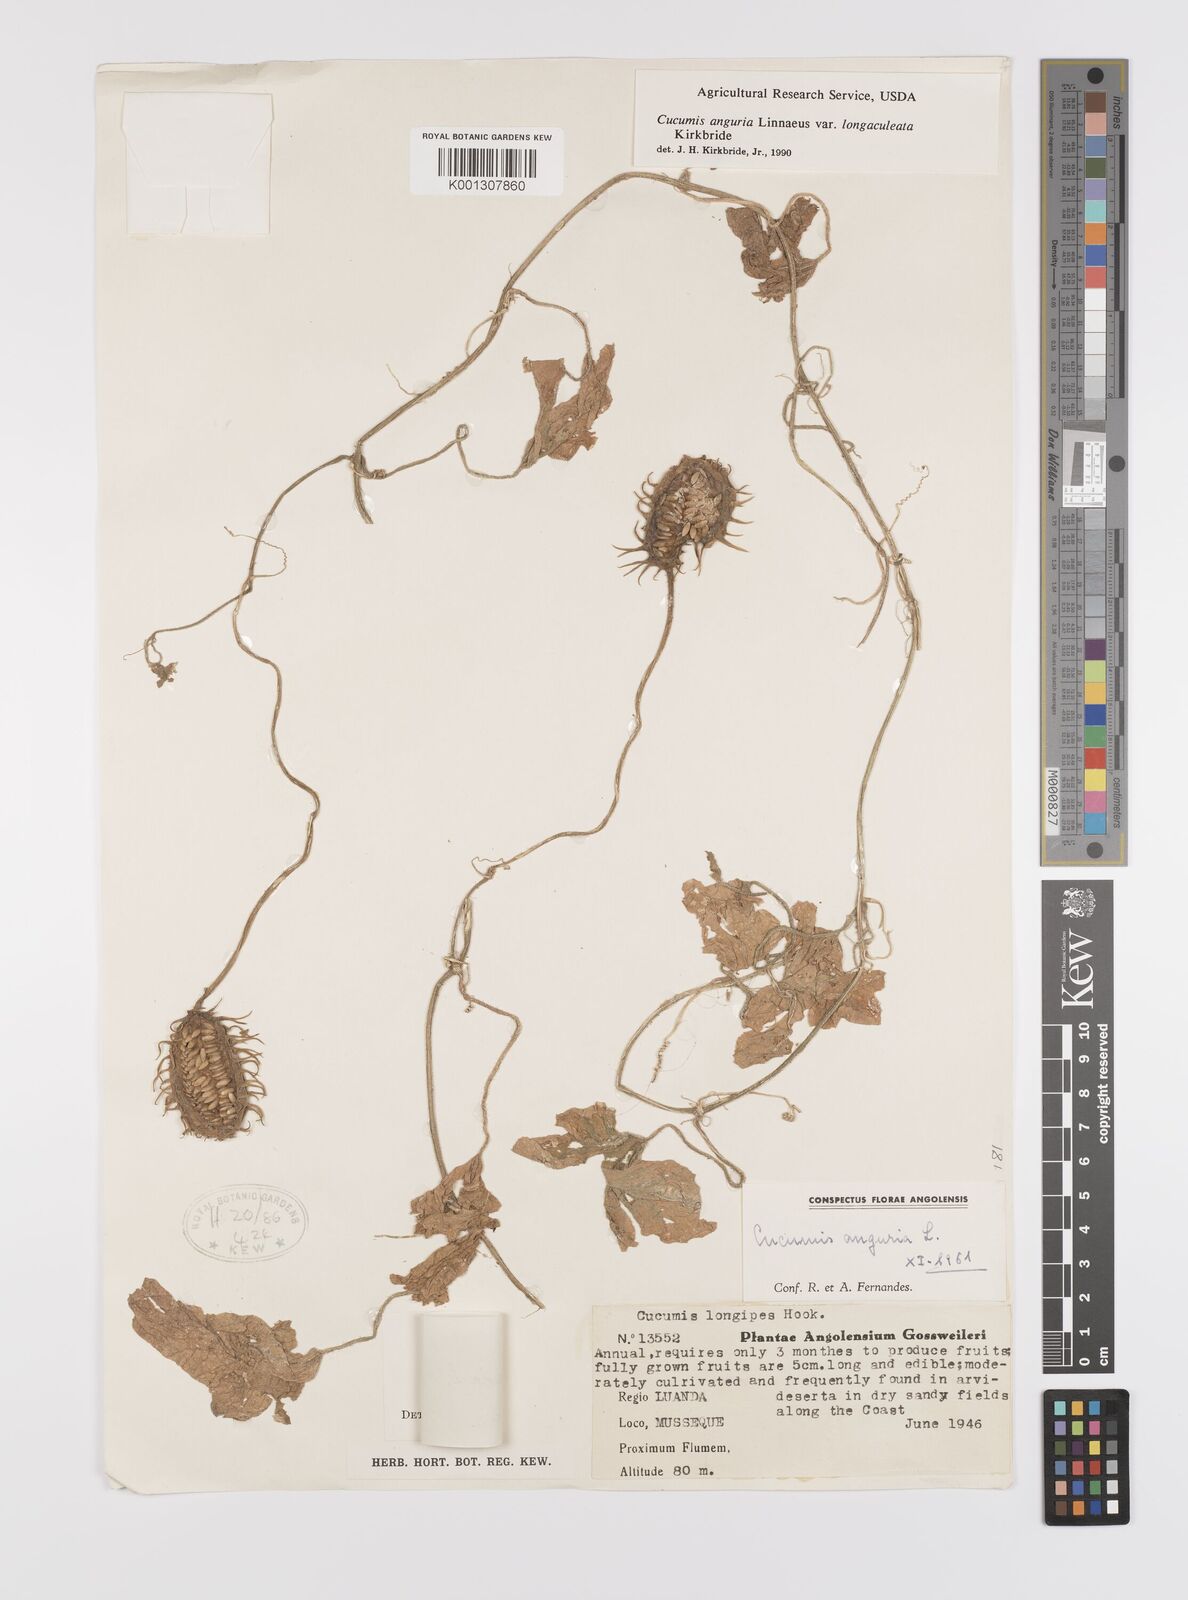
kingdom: Plantae
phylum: Tracheophyta
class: Magnoliopsida
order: Cucurbitales
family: Cucurbitaceae
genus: Cucumis
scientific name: Cucumis anguria
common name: West indian gherkin
